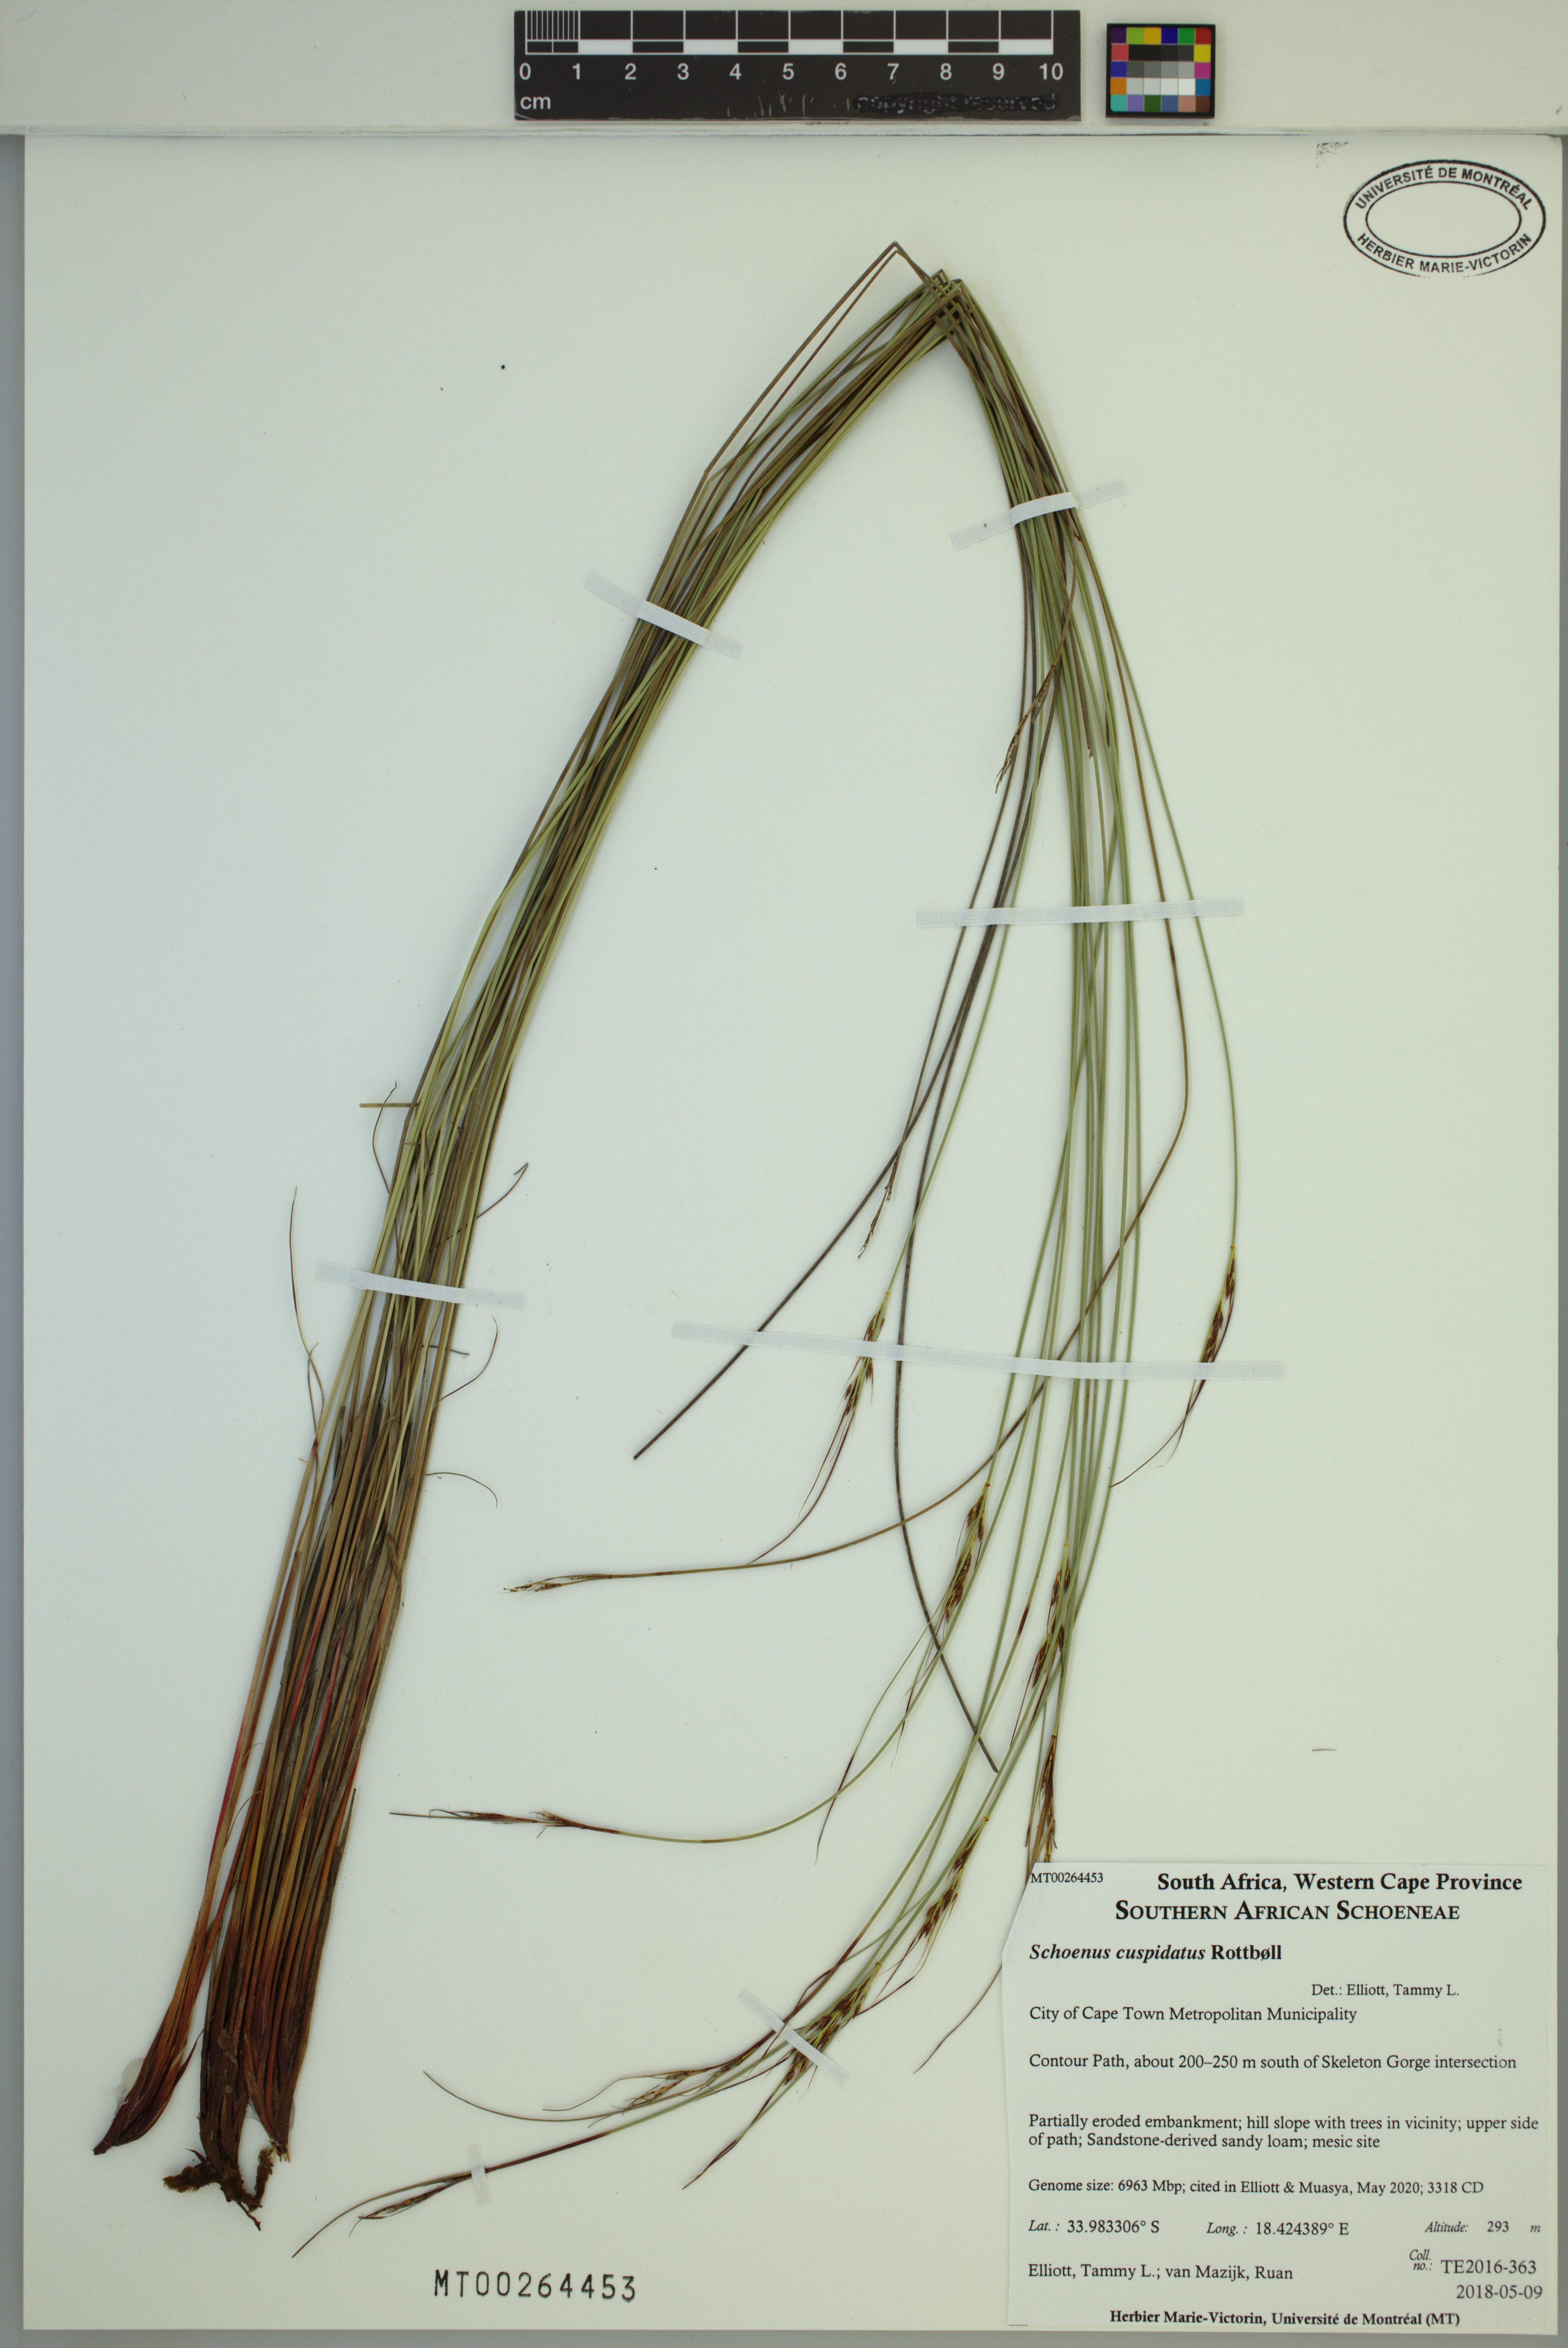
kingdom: Plantae
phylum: Tracheophyta
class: Liliopsida
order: Poales
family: Cyperaceae
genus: Schoenus
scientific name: Schoenus cuspidatus
